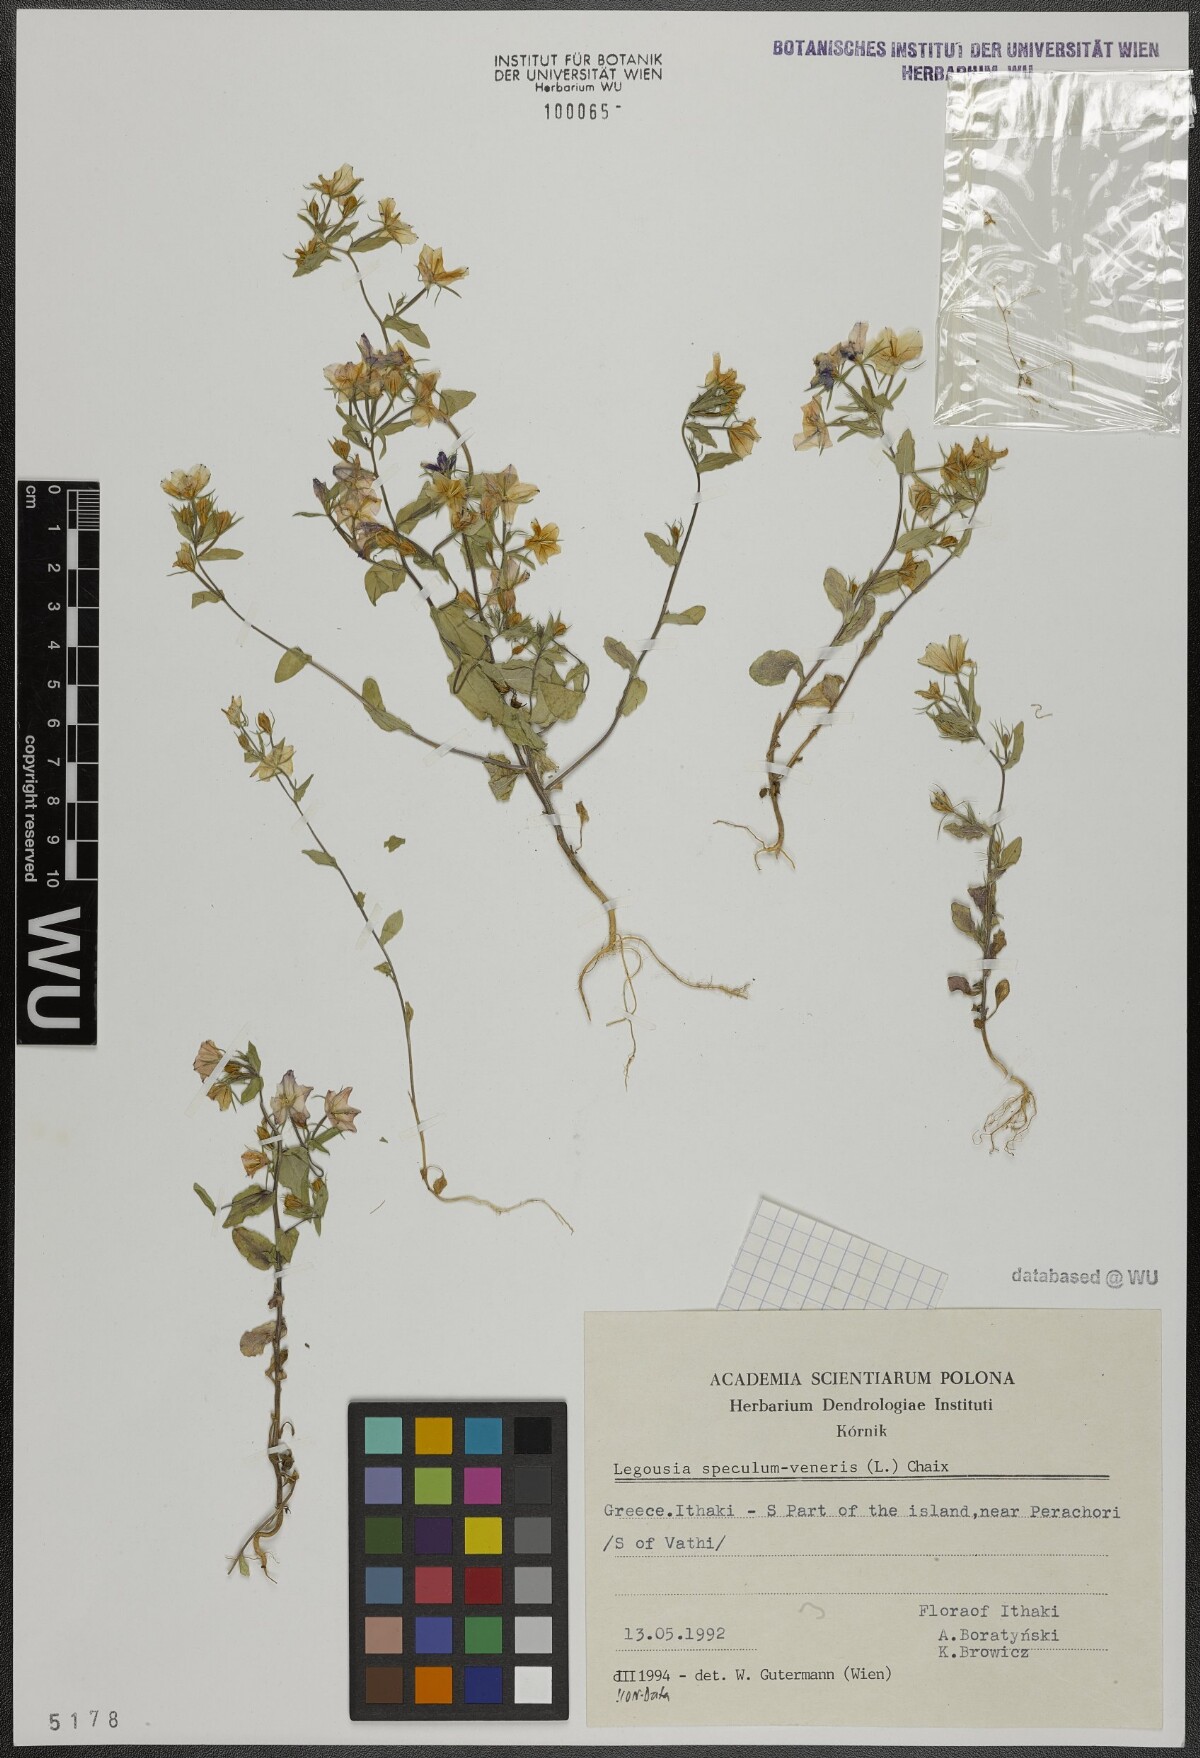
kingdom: Plantae
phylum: Tracheophyta
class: Magnoliopsida
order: Asterales
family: Campanulaceae
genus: Legousia
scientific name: Legousia speculum-veneris
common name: Large venus's-looking-glass
